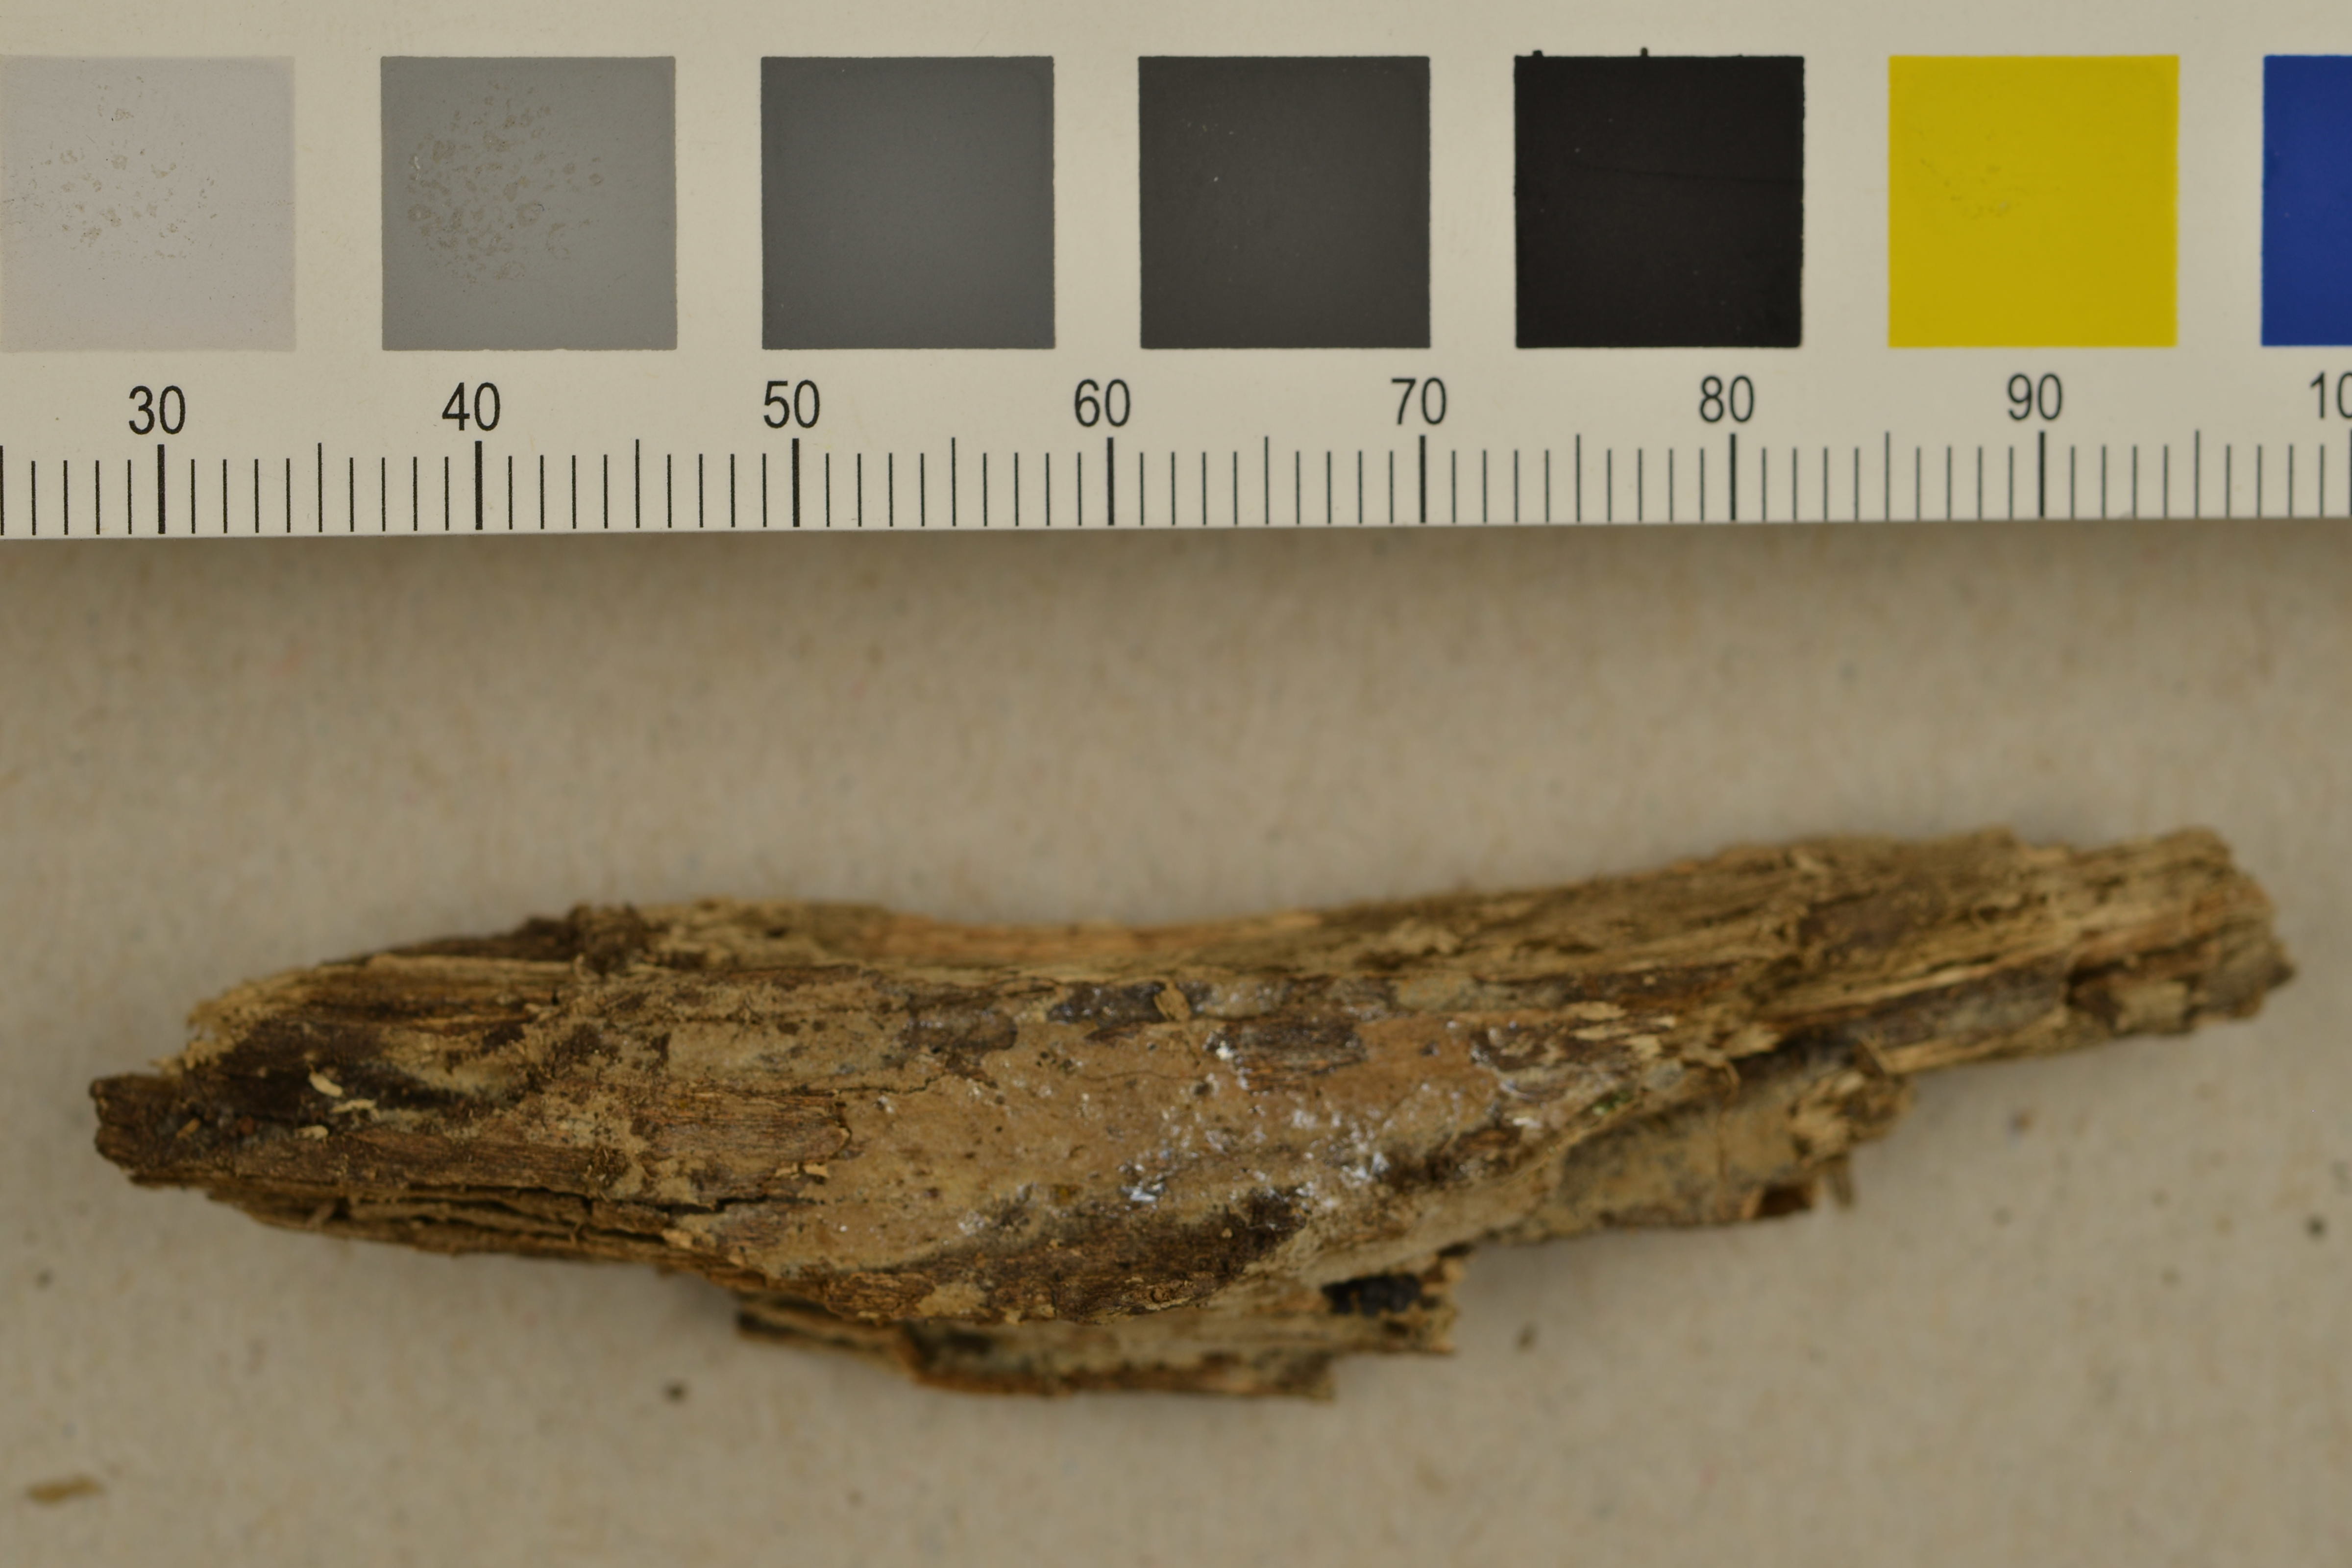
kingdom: Fungi
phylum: Basidiomycota
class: Agaricomycetes
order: Cantharellales
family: Ceratobasidiaceae
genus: Rhizoctonia
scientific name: Rhizoctonia fusispora
